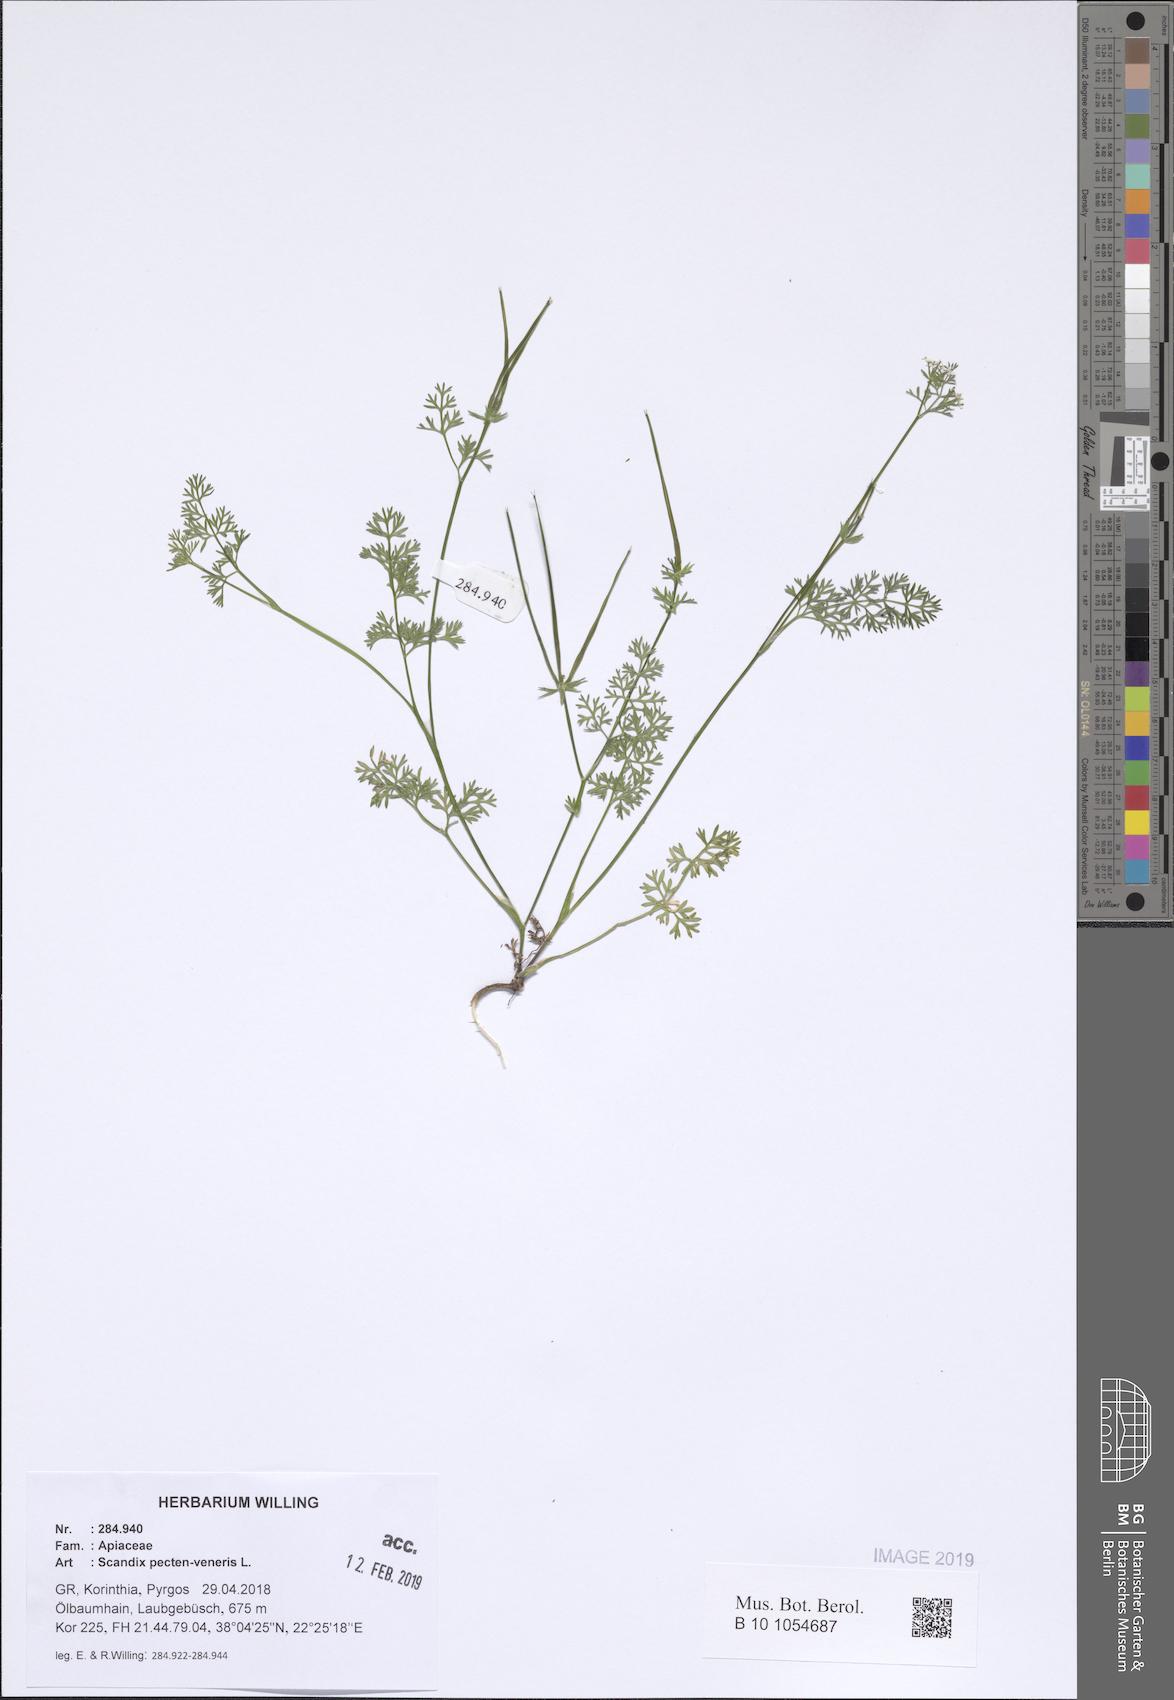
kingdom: Plantae
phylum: Tracheophyta
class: Magnoliopsida
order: Apiales
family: Apiaceae
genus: Scandix
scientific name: Scandix pecten-veneris
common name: Shepherd's-needle
